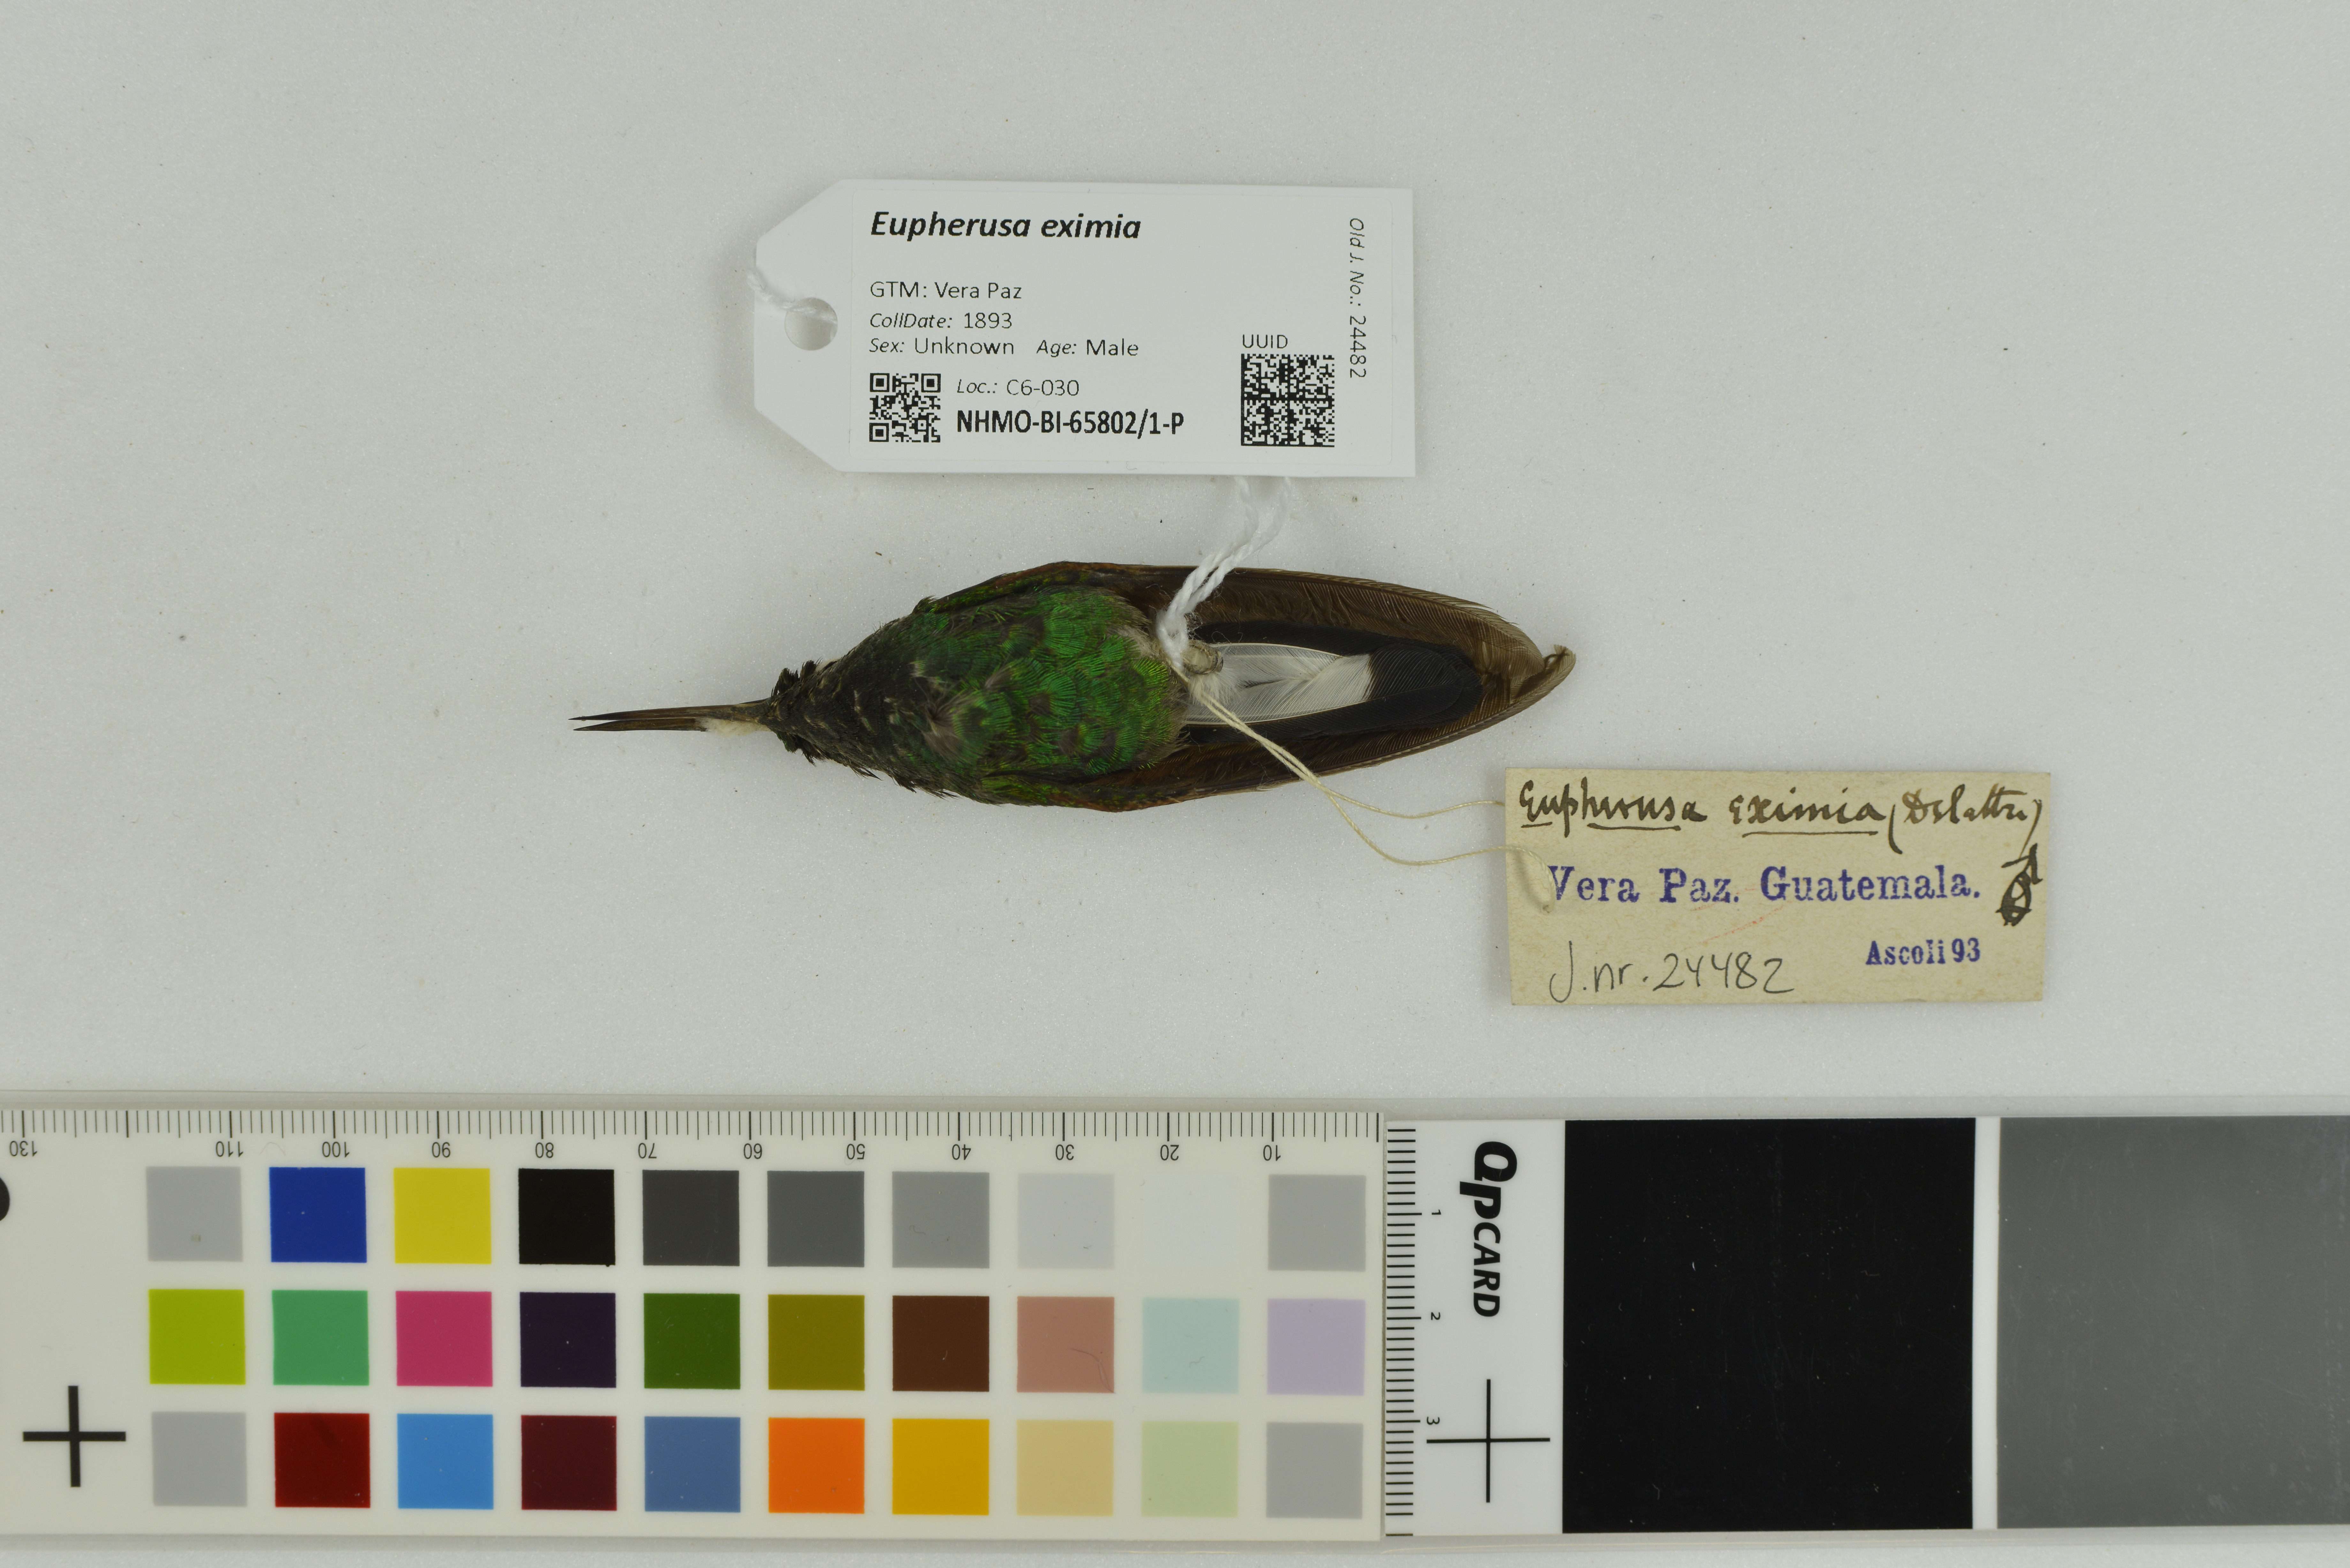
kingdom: Animalia
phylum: Chordata
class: Aves
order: Apodiformes
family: Trochilidae
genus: Eupherusa
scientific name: Eupherusa eximia
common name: Stripe-tailed hummingbird
